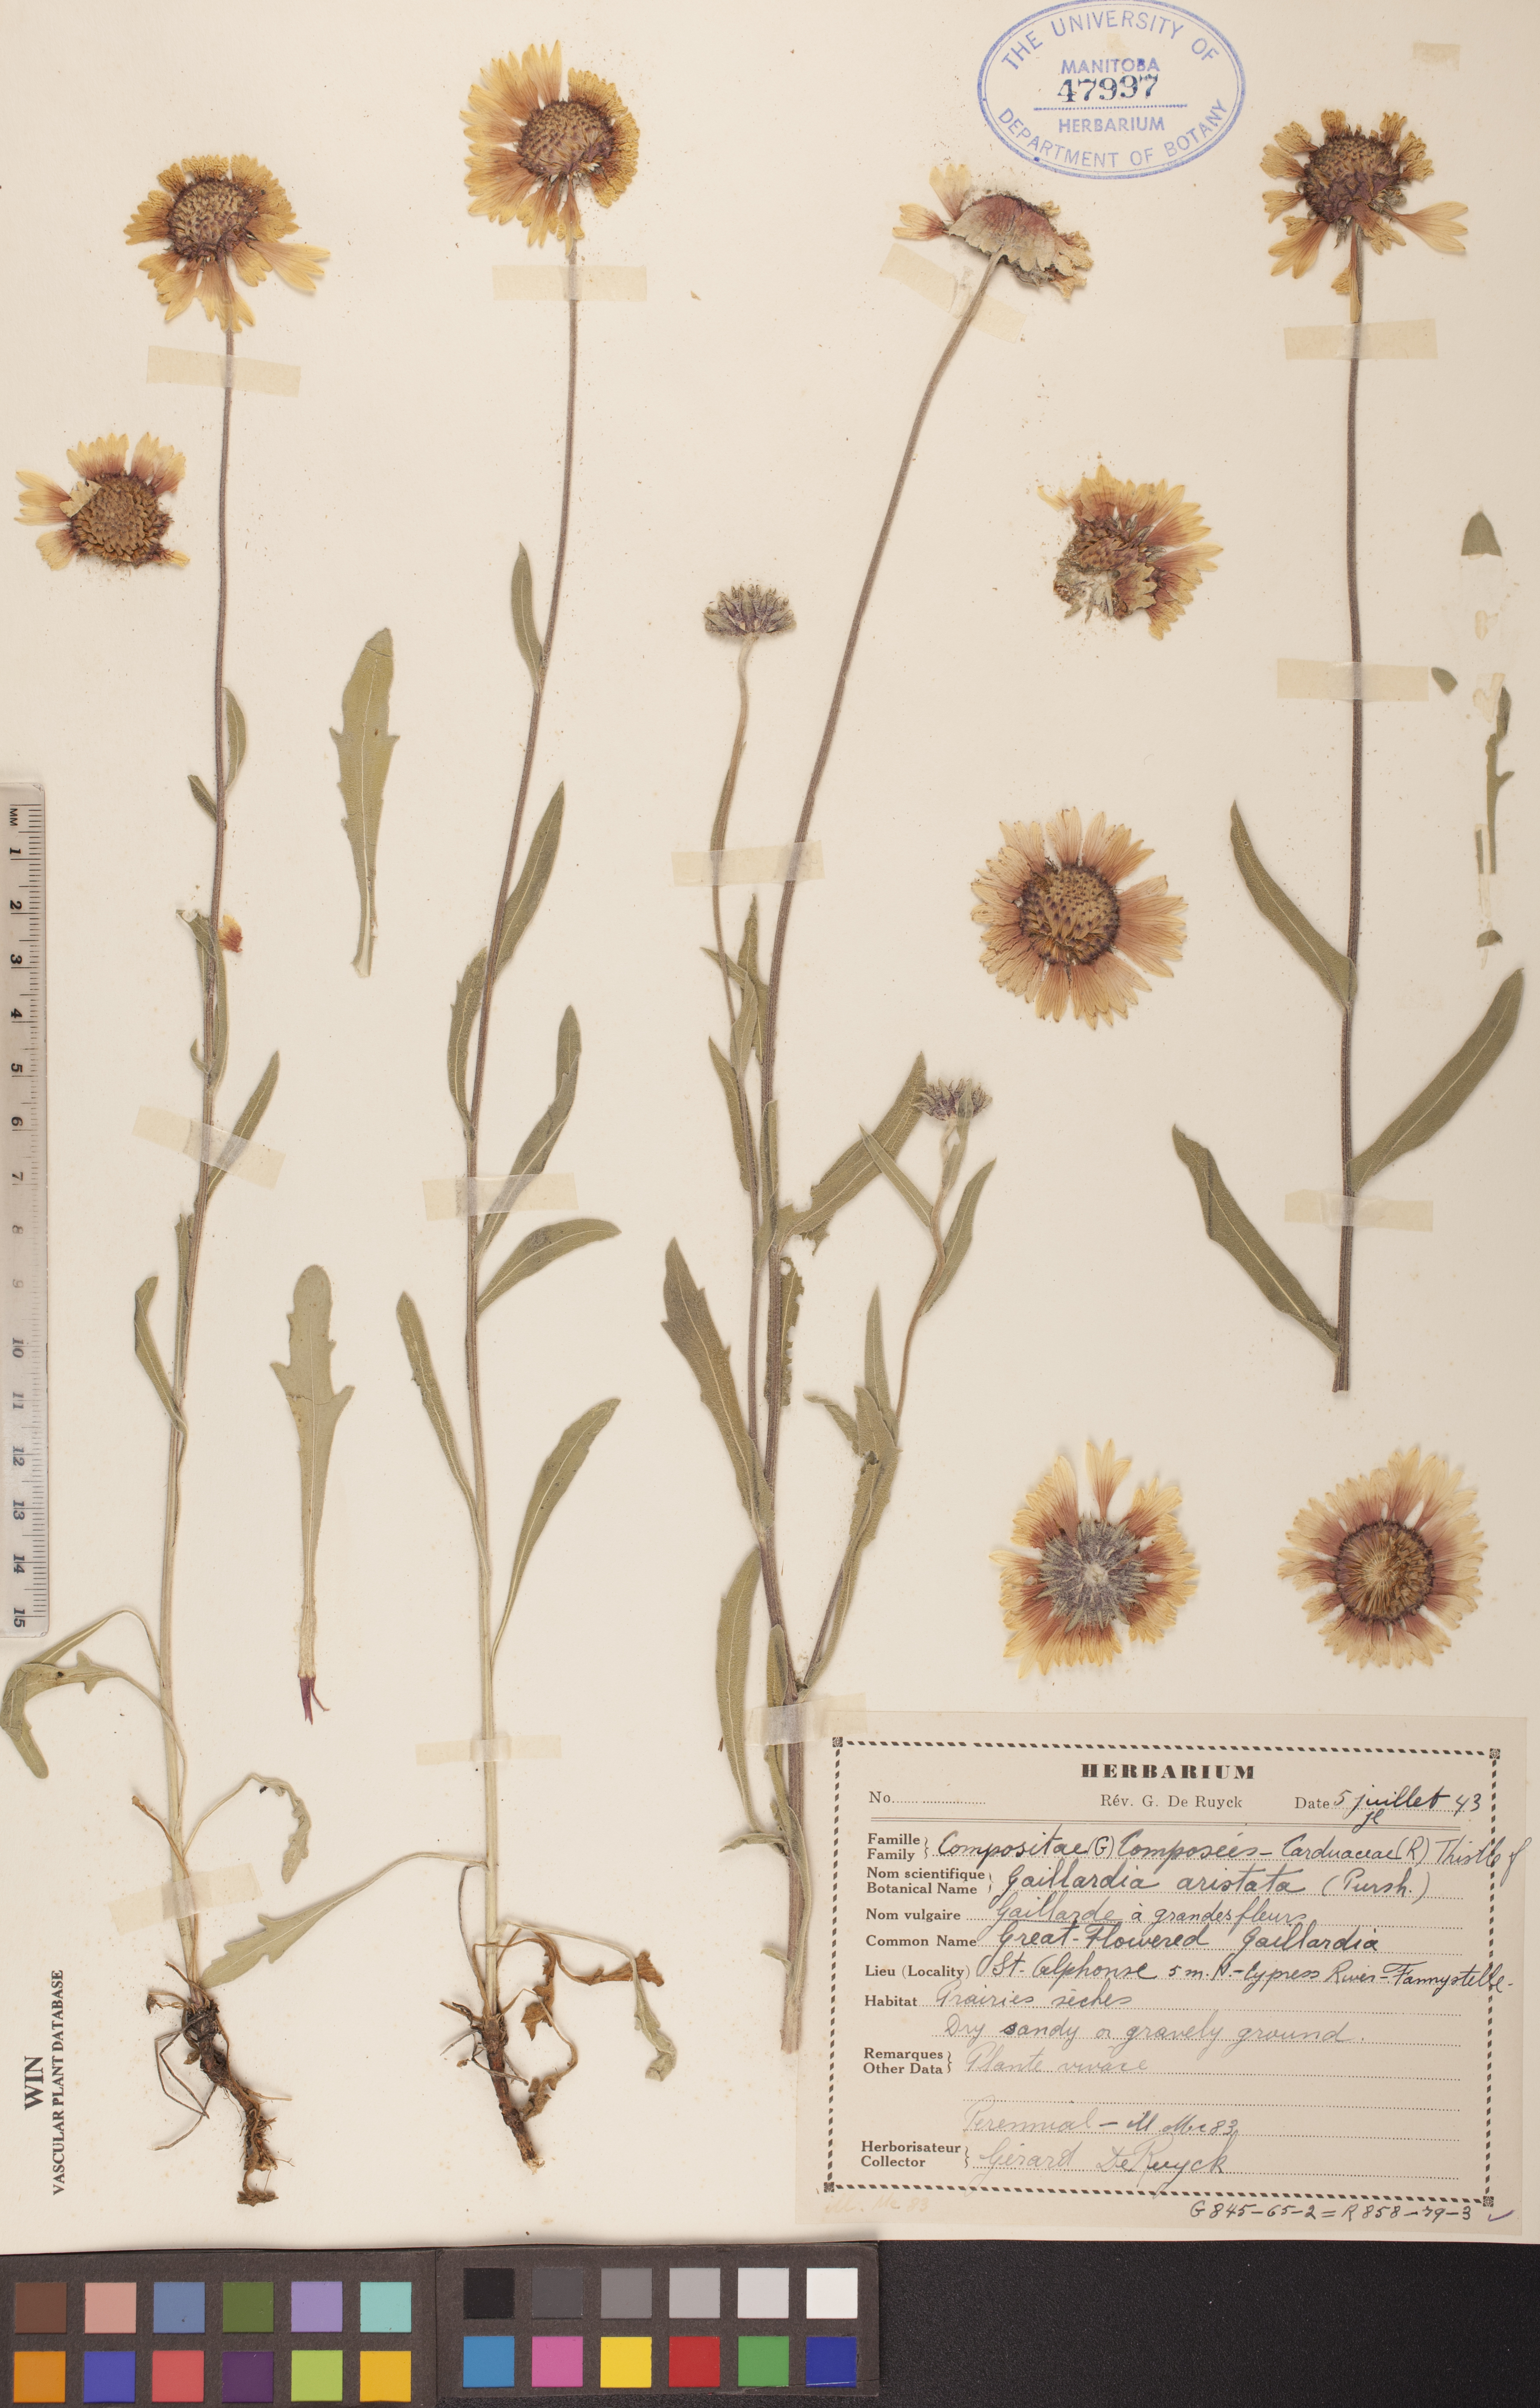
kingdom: Plantae
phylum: Tracheophyta
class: Magnoliopsida
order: Asterales
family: Asteraceae
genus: Gaillardia
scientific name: Gaillardia aristata
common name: Blanket-flower
